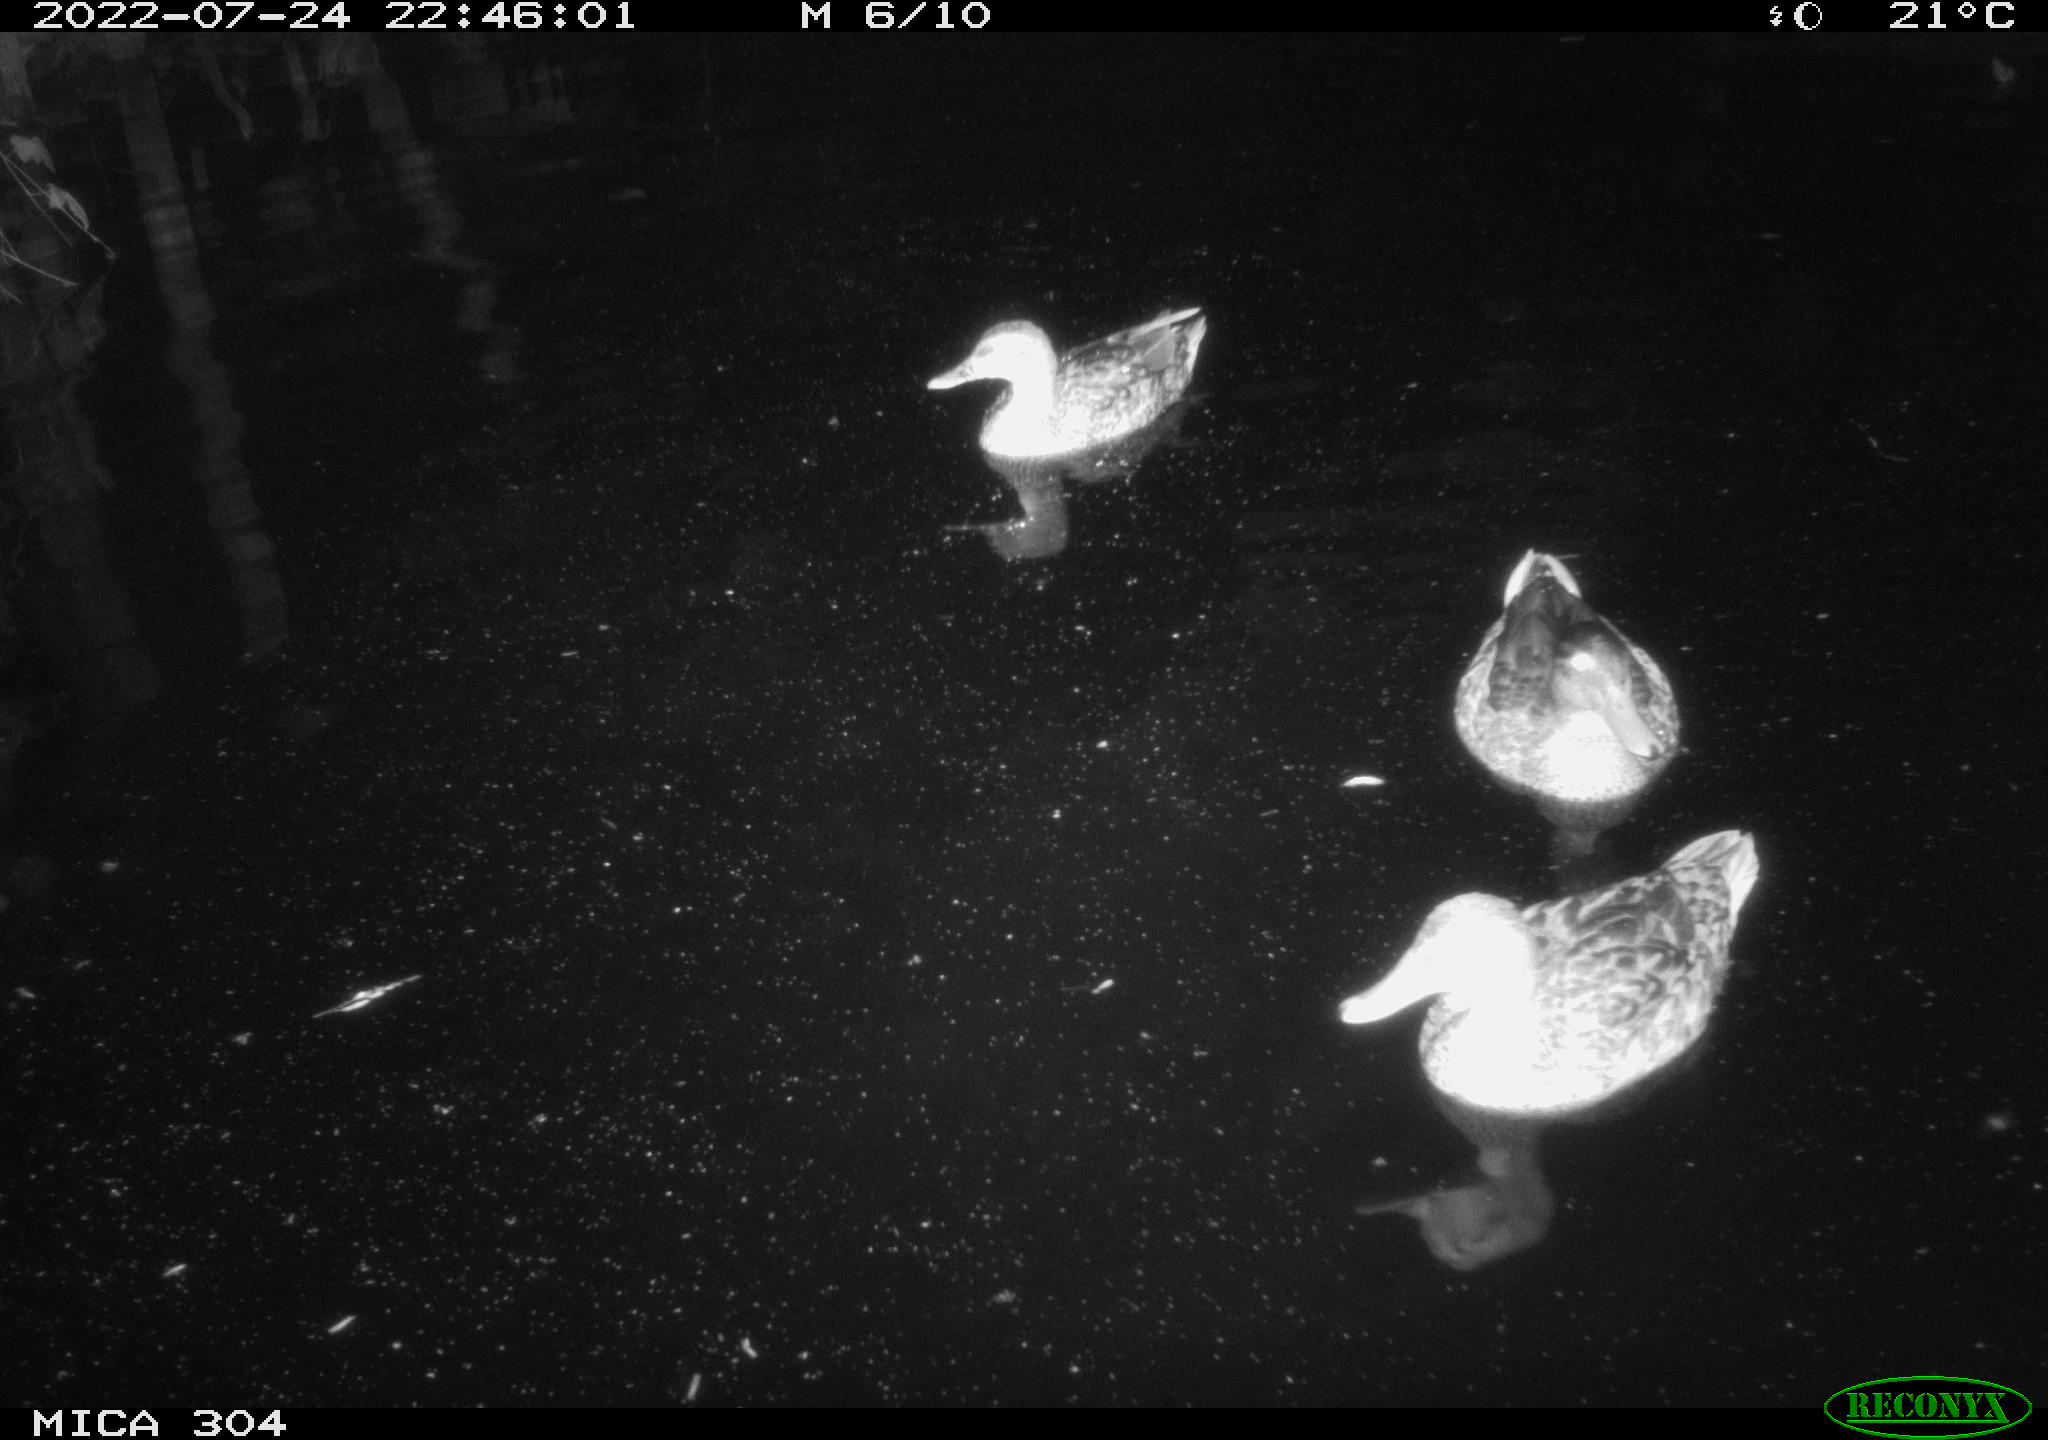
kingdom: Animalia
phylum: Chordata
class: Aves
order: Anseriformes
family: Anatidae
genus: Mareca
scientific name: Mareca strepera
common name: Gadwall
